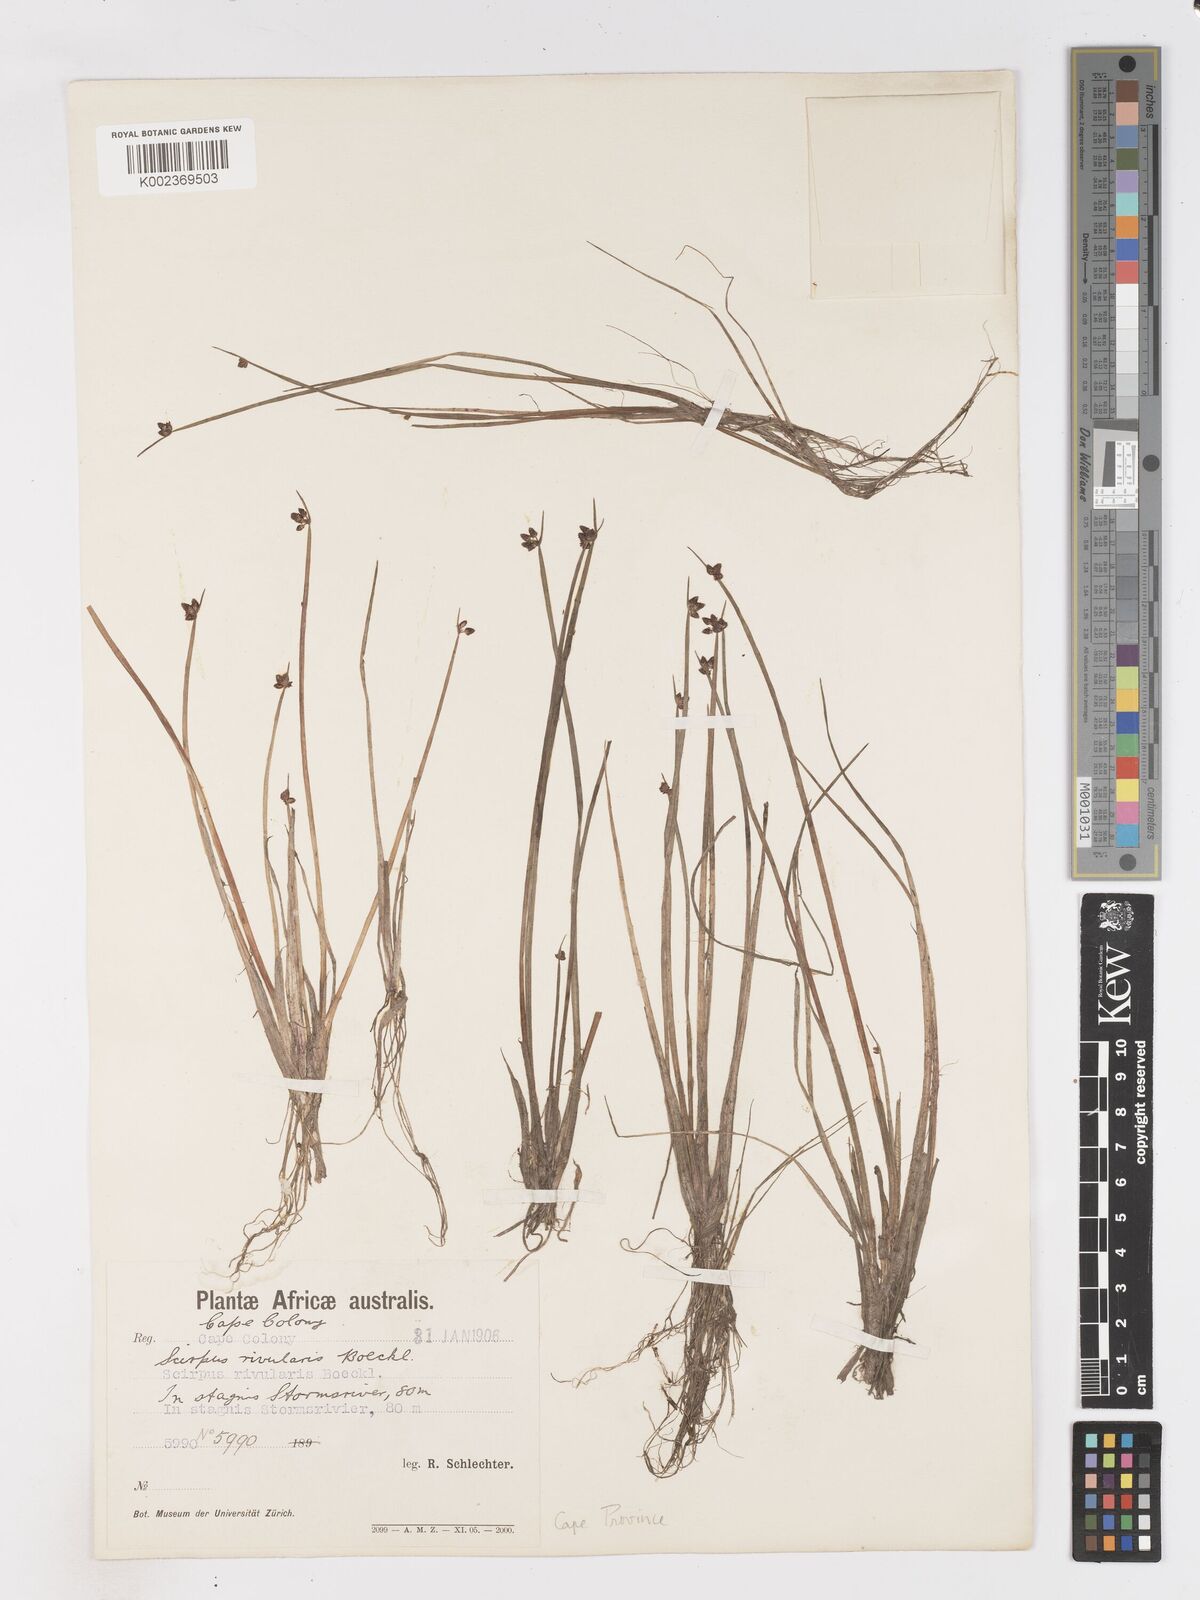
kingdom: Plantae
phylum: Tracheophyta
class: Liliopsida
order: Poales
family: Cyperaceae
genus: Isolepis
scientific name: Isolepis natans
